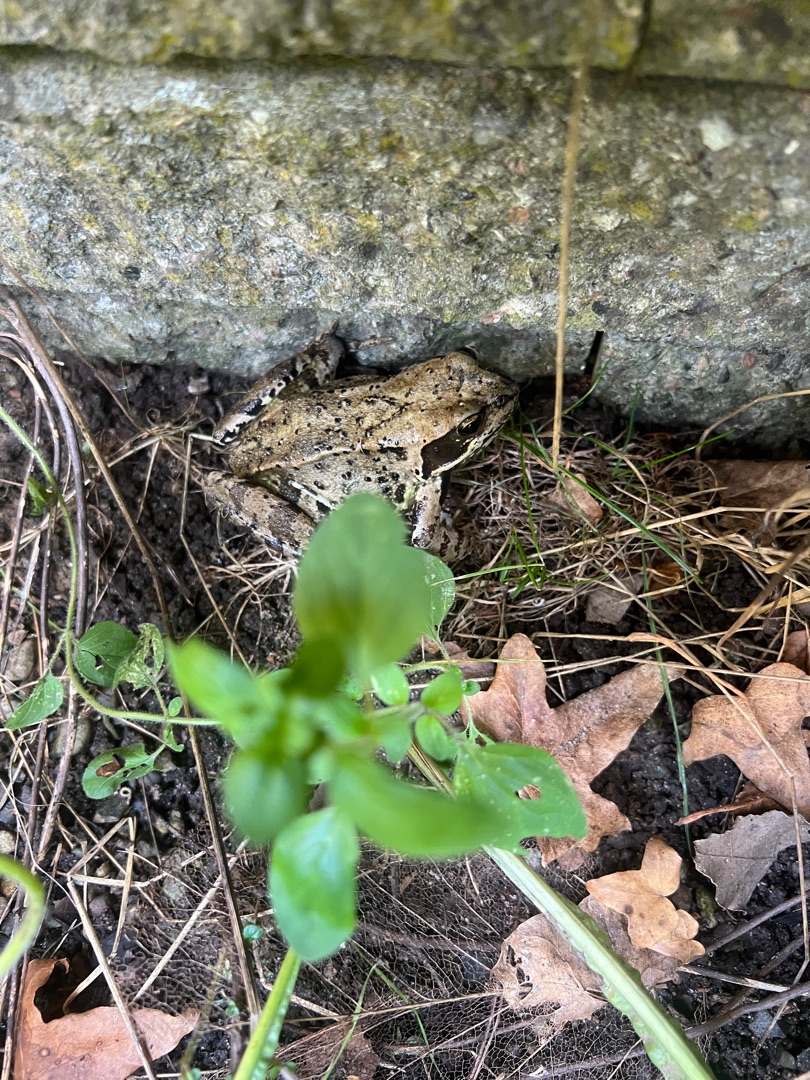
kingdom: Animalia
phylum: Chordata
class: Amphibia
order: Anura
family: Ranidae
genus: Rana
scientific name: Rana temporaria
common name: Butsnudet frø
